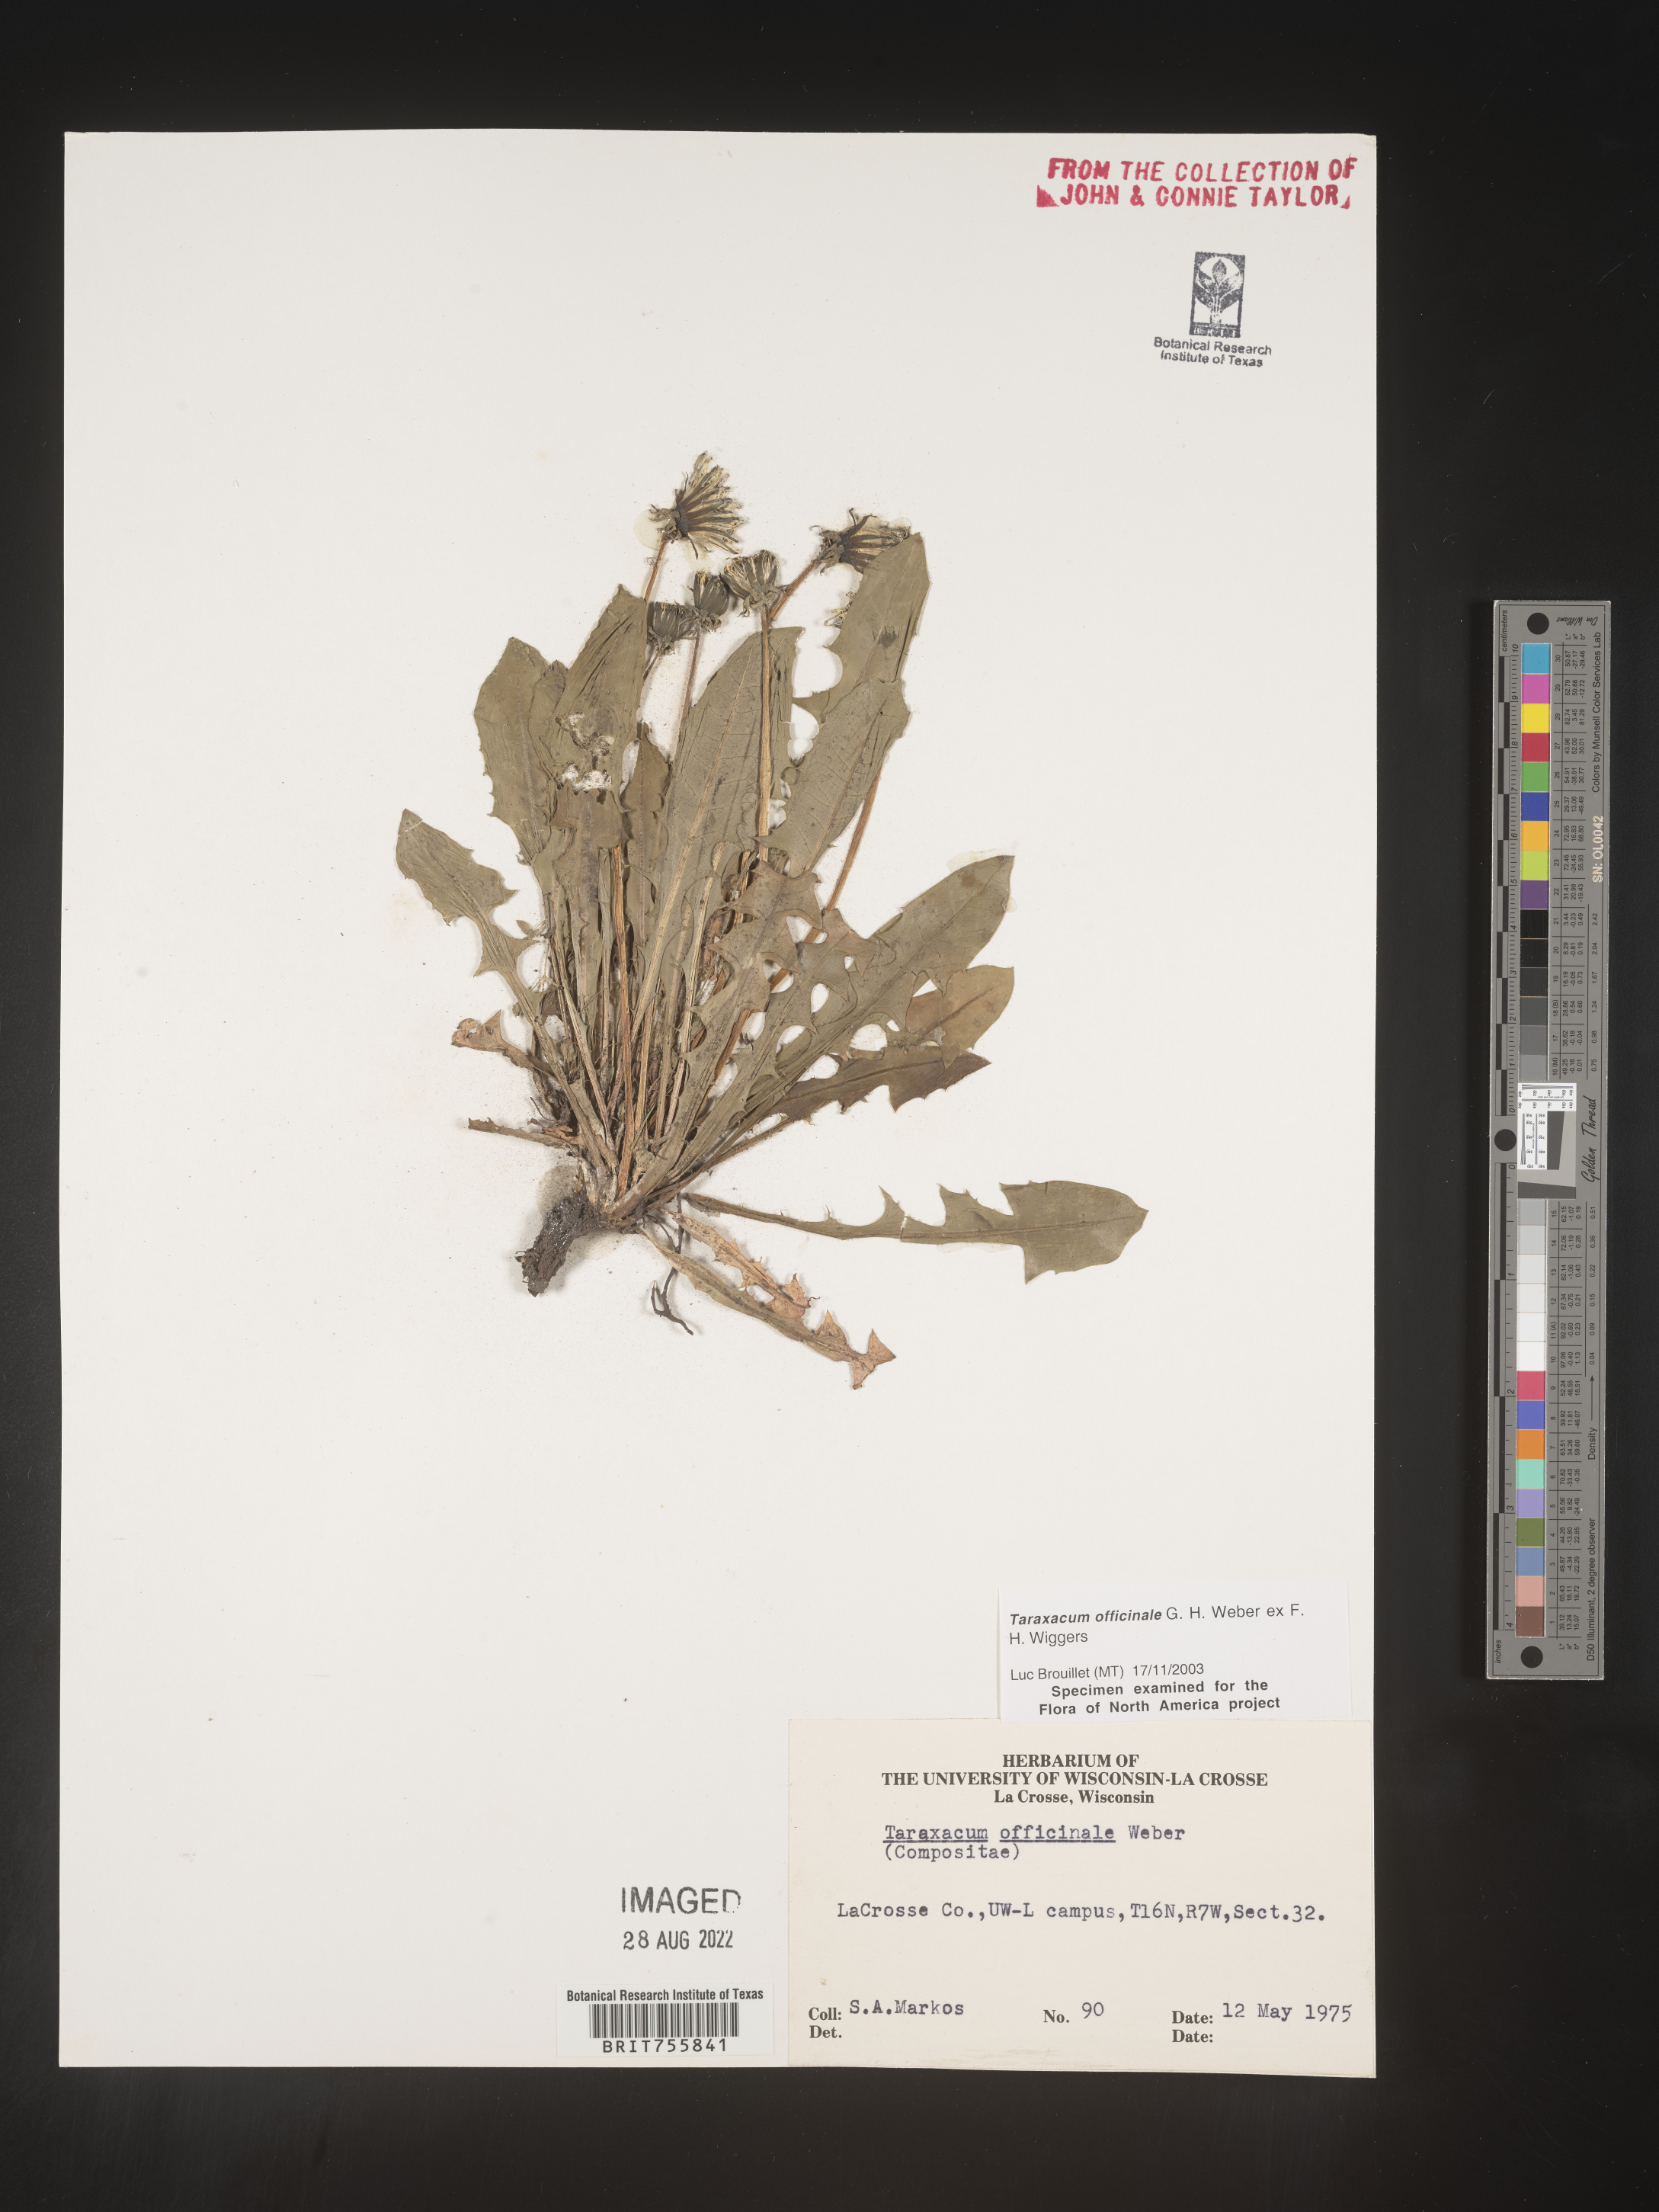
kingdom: Plantae
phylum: Tracheophyta
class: Magnoliopsida
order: Asterales
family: Asteraceae
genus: Taraxacum
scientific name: Taraxacum officinale
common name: Common dandelion
